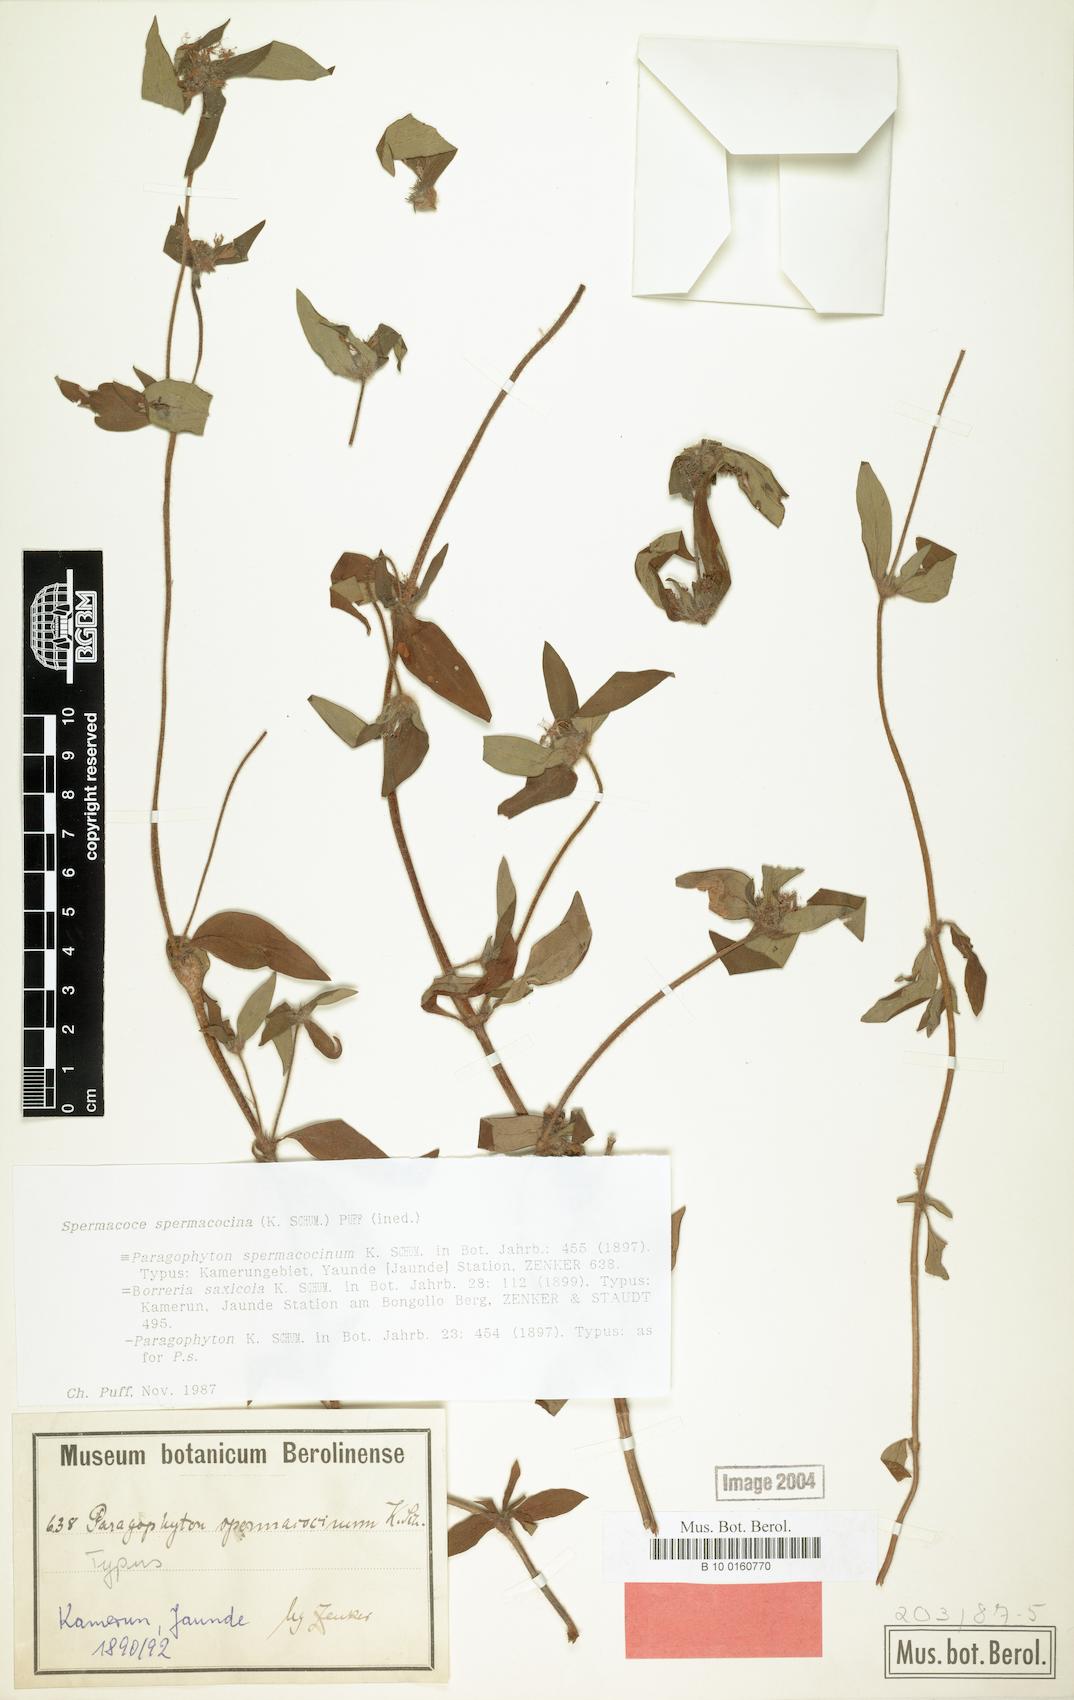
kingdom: Plantae
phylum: Tracheophyta
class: Magnoliopsida
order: Gentianales
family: Rubiaceae
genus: Spermacoce
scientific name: Spermacoce spermacocina
